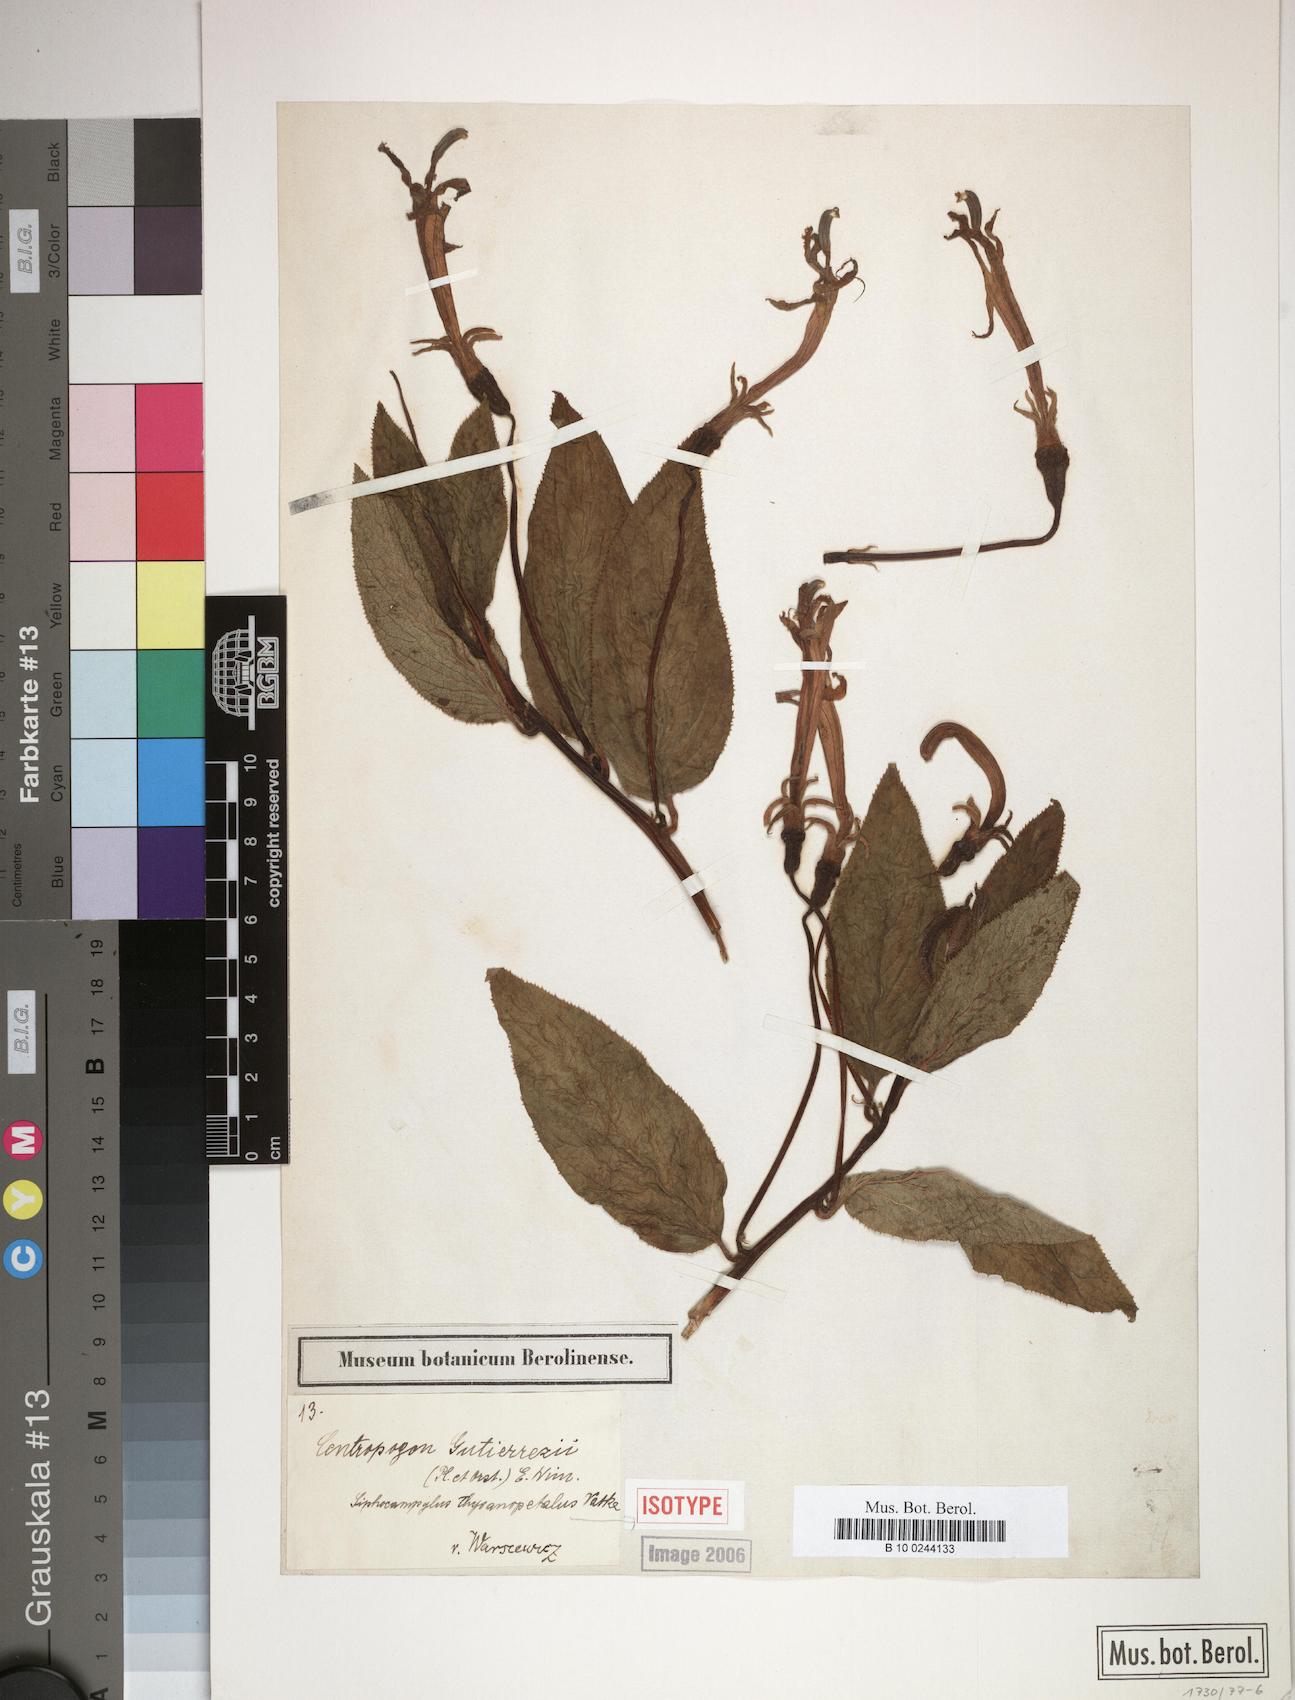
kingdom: Plantae
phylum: Tracheophyta
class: Magnoliopsida
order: Asterales
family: Campanulaceae
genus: Centropogon
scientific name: Centropogon gutierrezii
